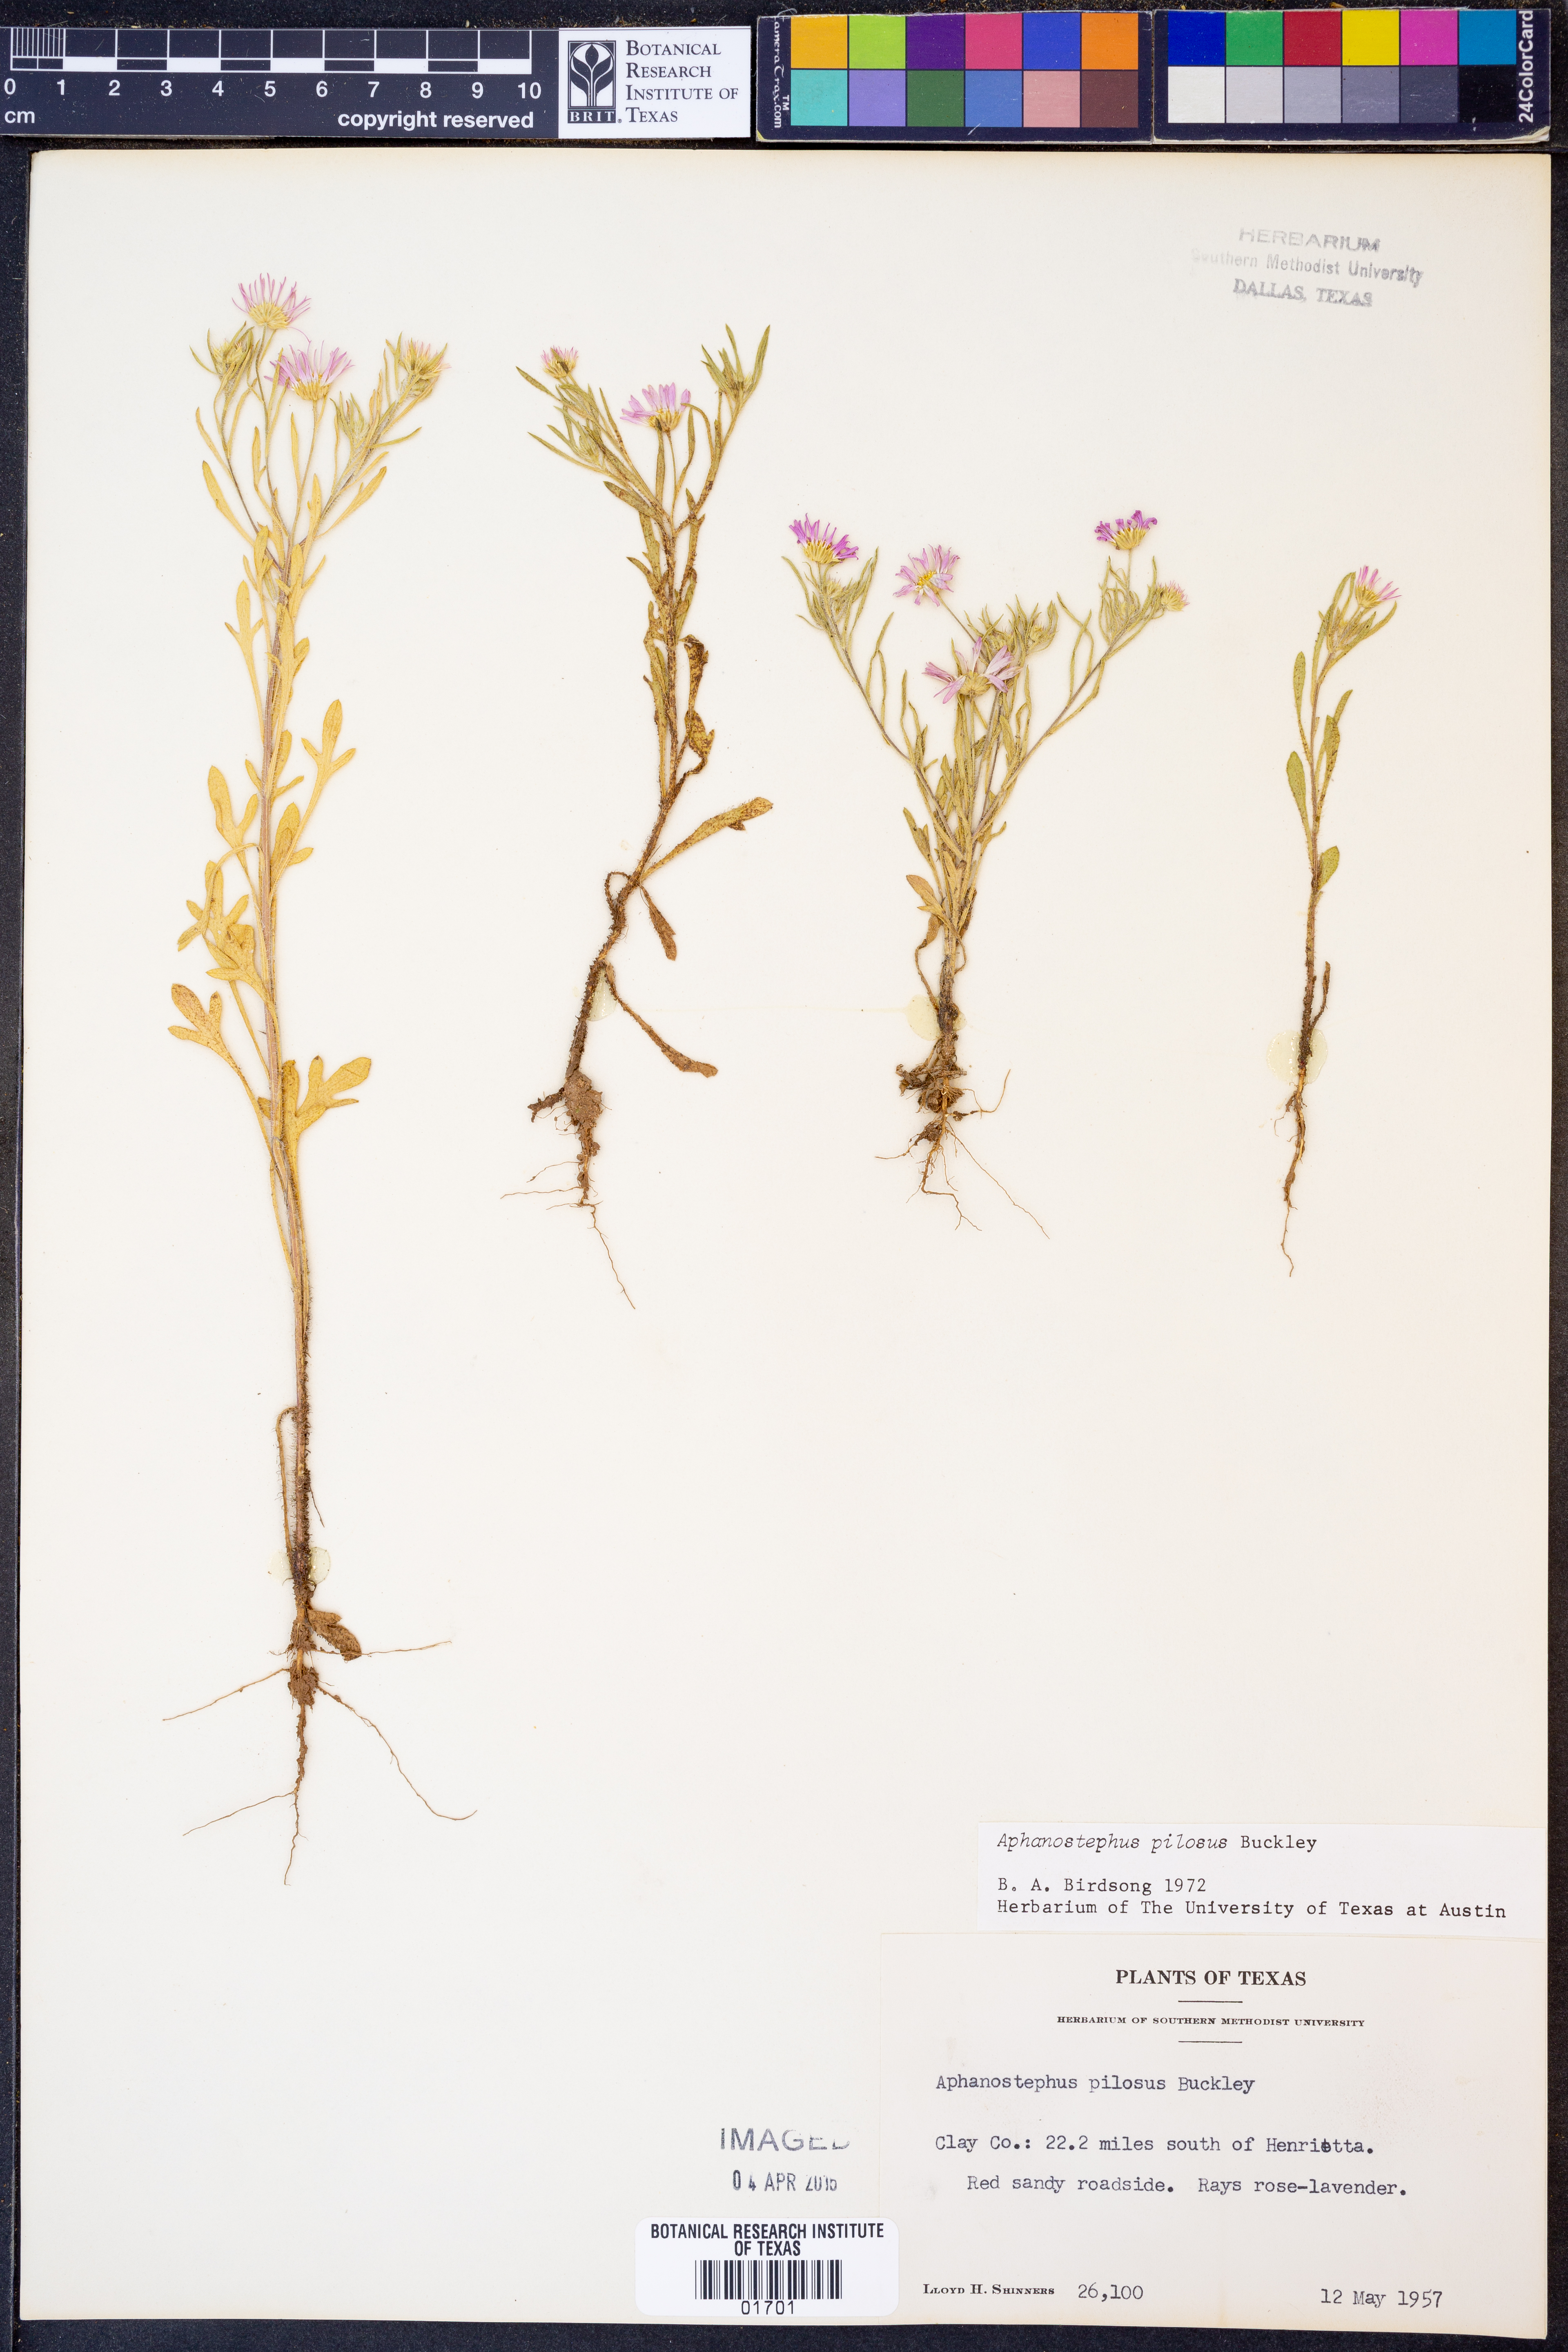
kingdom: Plantae
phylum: Tracheophyta
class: Magnoliopsida
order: Asterales
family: Asteraceae
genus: Aphanostephus
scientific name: Aphanostephus pilosus
